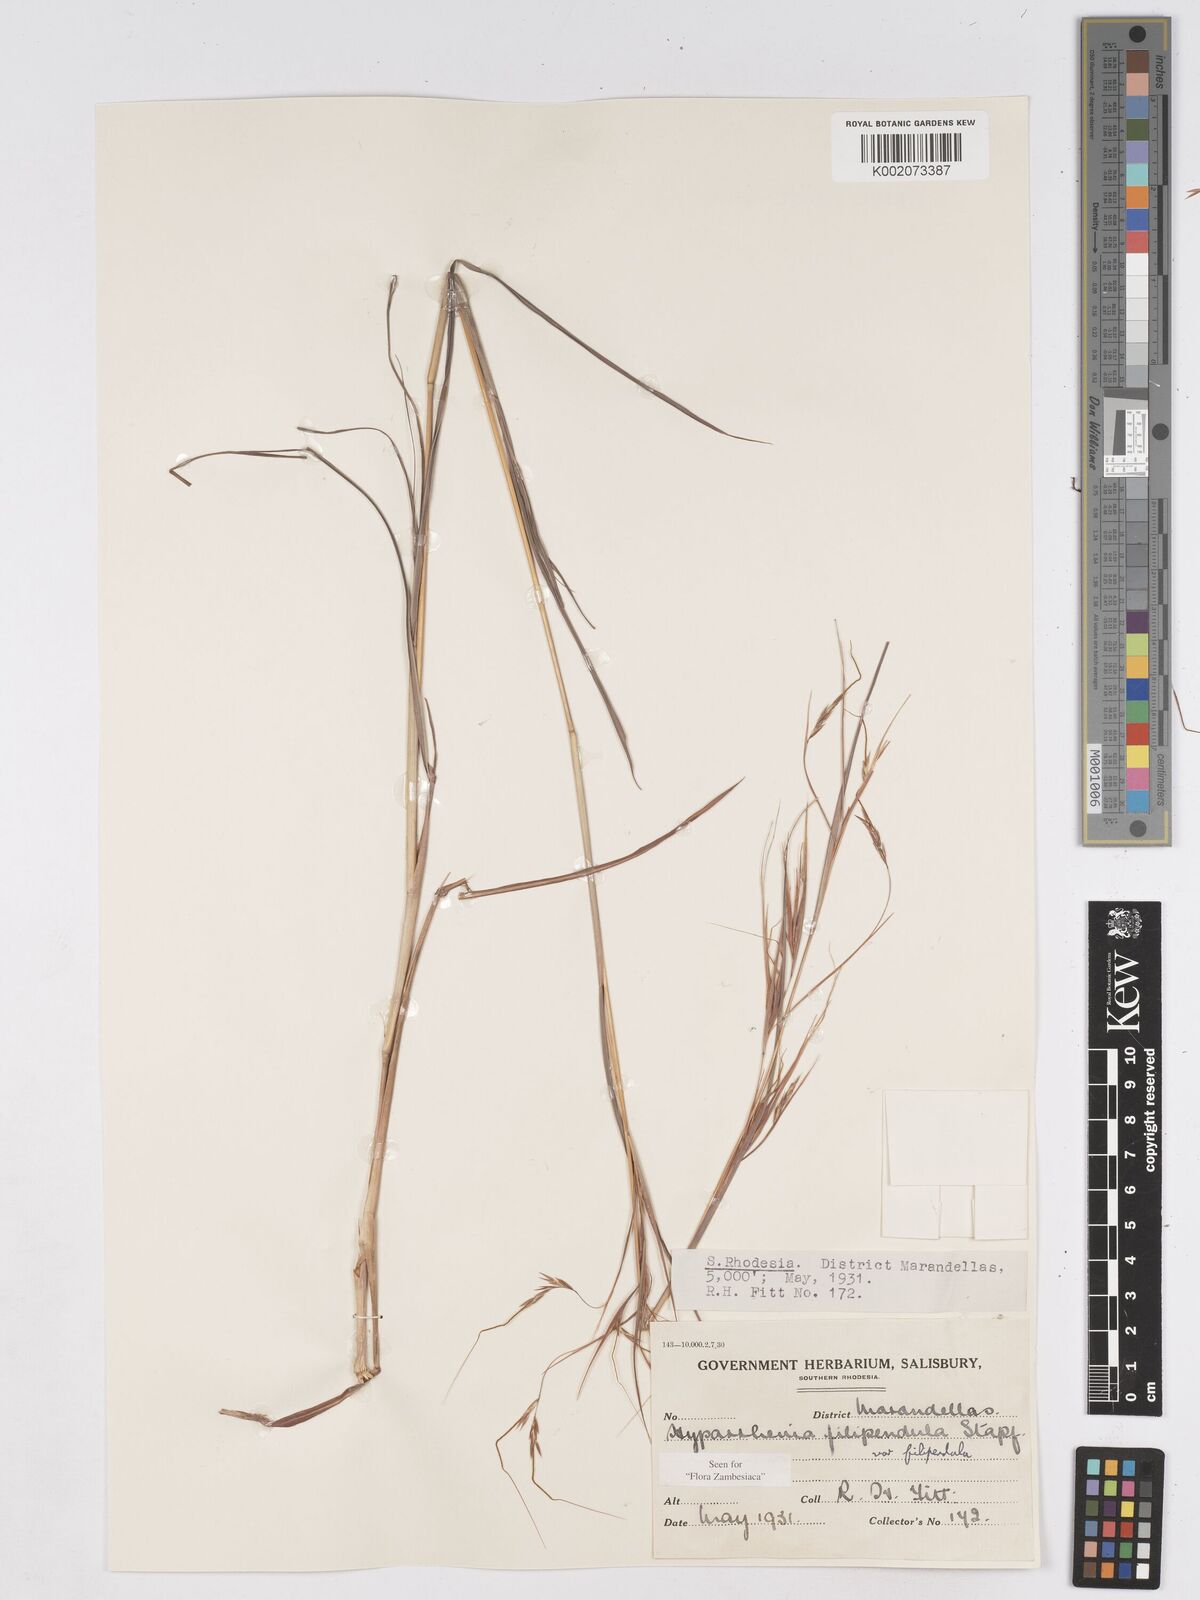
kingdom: Plantae
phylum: Tracheophyta
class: Liliopsida
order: Poales
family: Poaceae
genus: Hyparrhenia
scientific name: Hyparrhenia filipendula
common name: Tambookie grass
